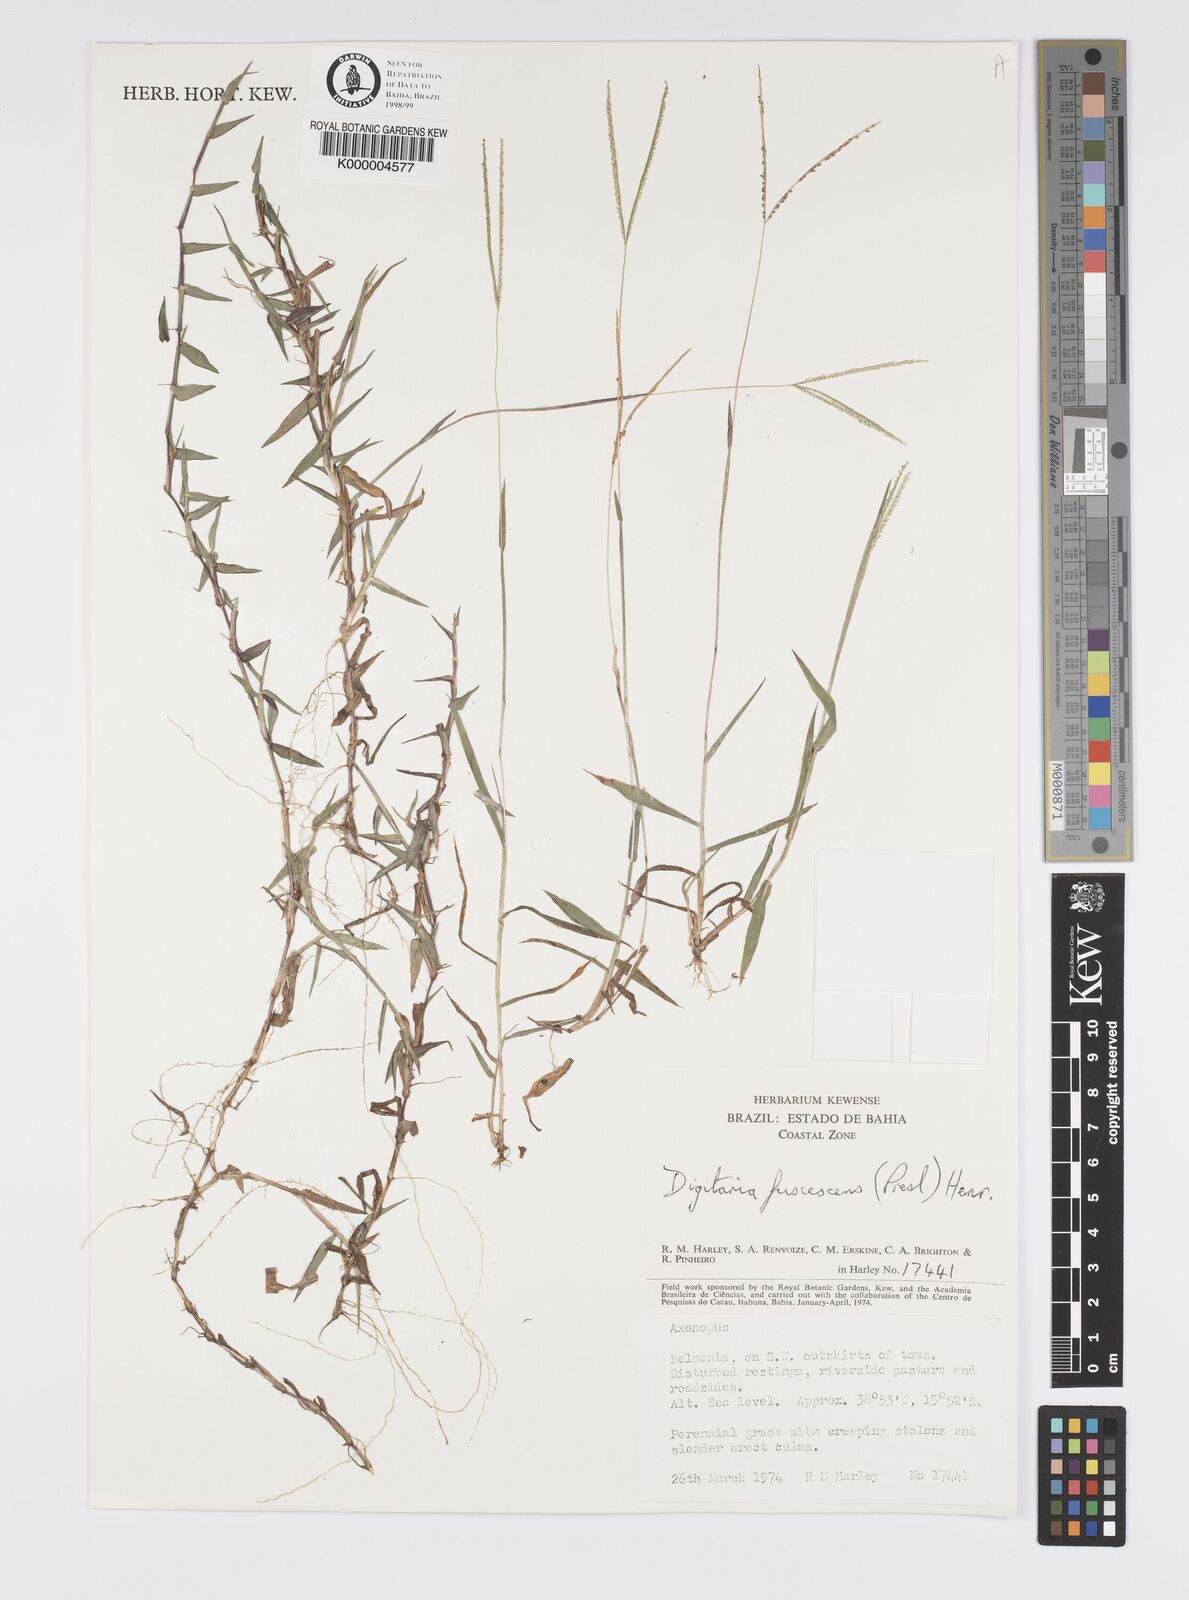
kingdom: Plantae
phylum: Tracheophyta
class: Liliopsida
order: Poales
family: Poaceae
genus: Digitaria
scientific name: Digitaria fuscescens
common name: Yellow crabgrass
